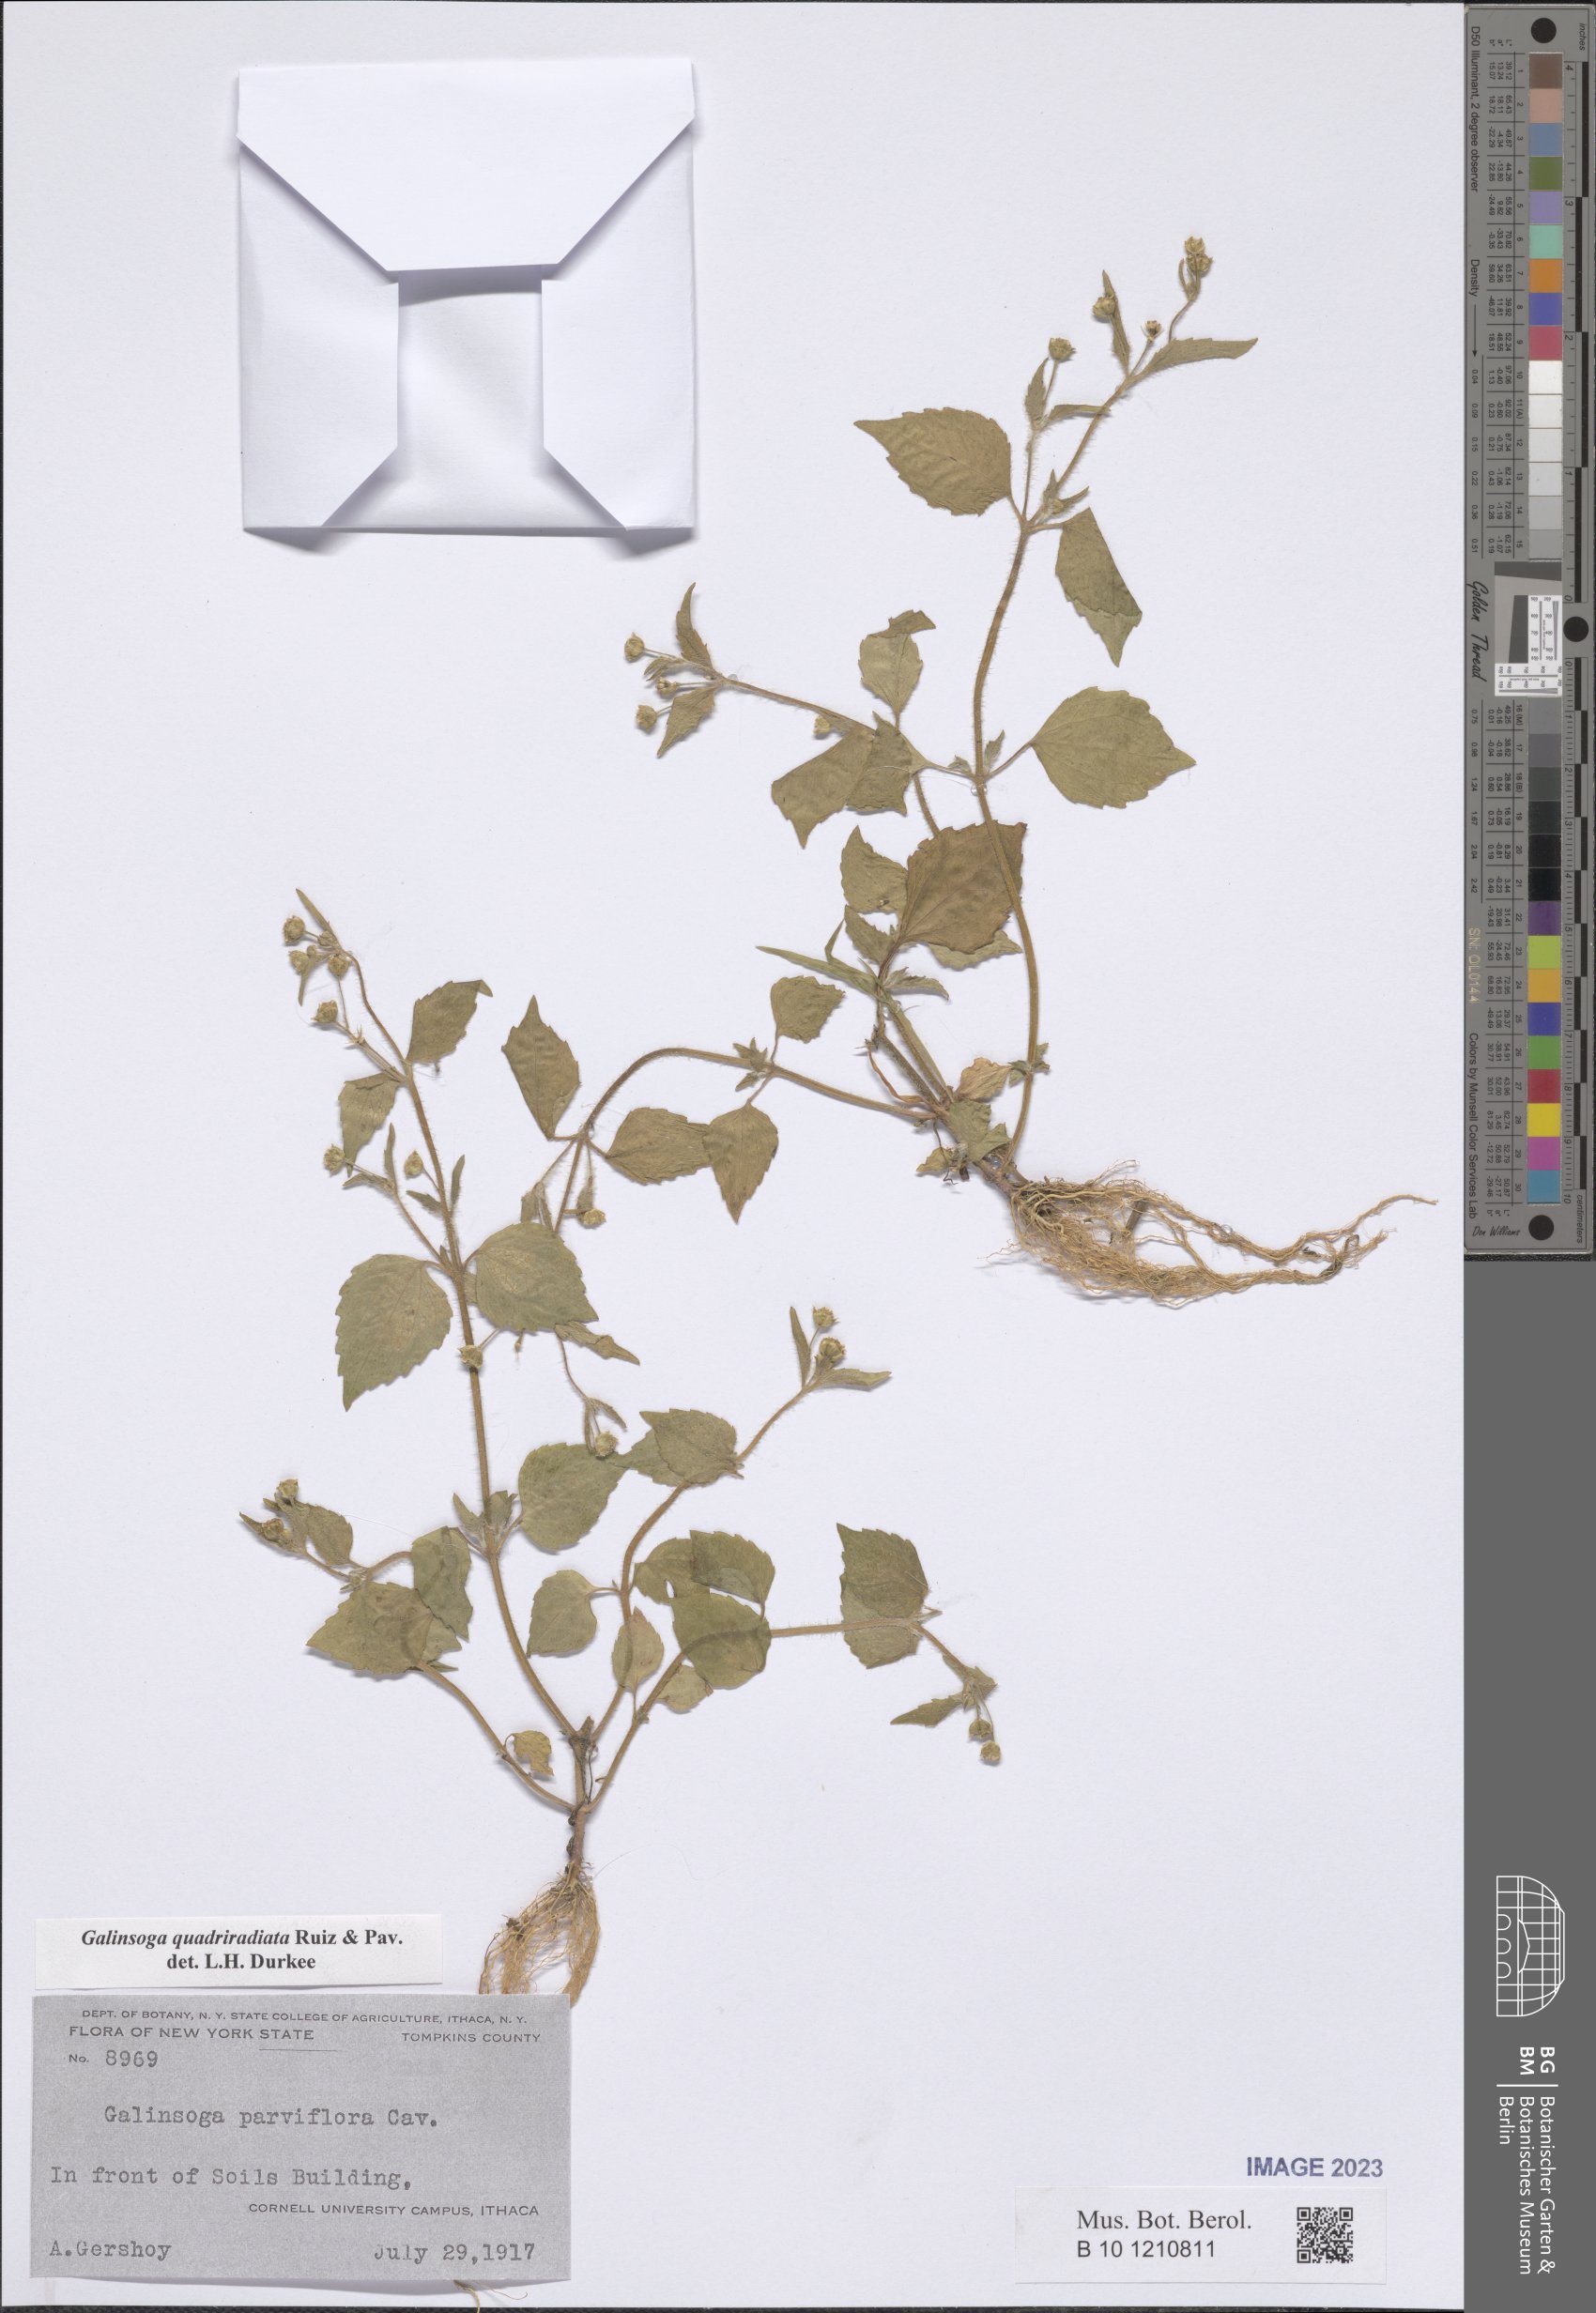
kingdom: Plantae
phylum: Tracheophyta
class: Magnoliopsida
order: Asterales
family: Asteraceae
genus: Galinsoga
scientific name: Galinsoga quadriradiata
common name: Shaggy soldier
